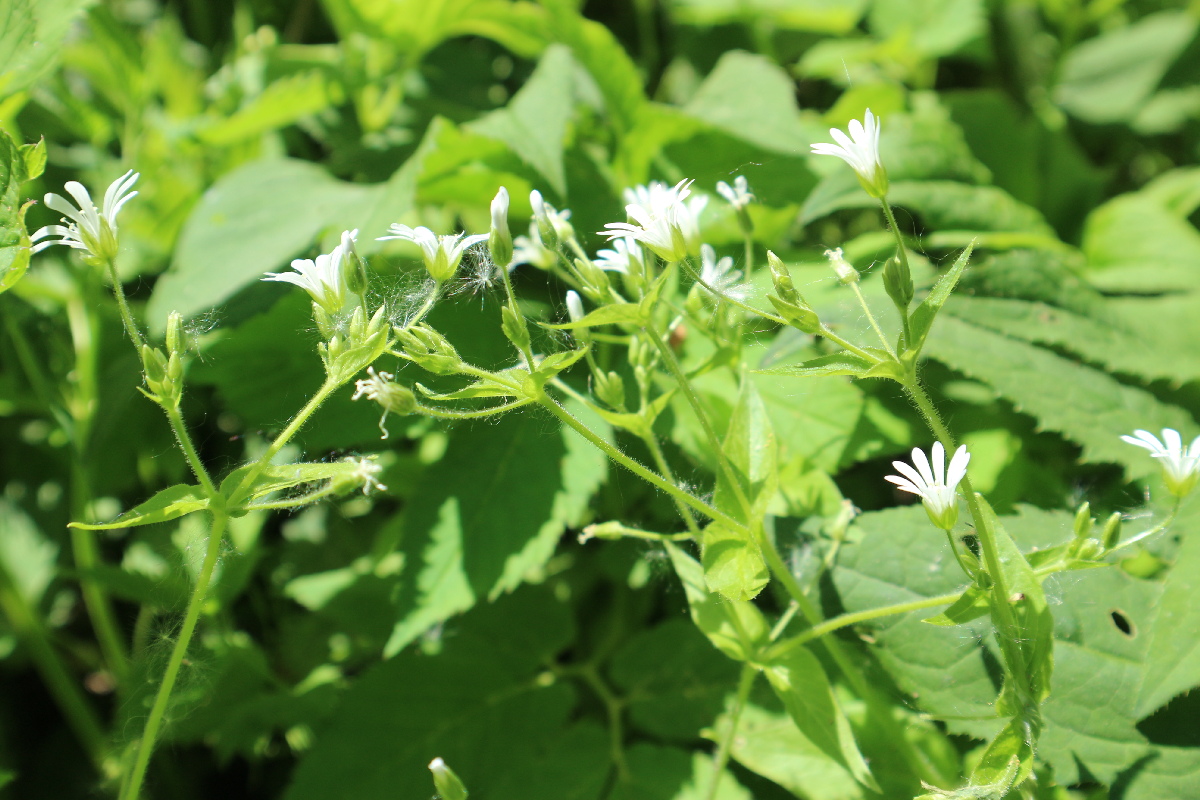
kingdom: Plantae
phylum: Tracheophyta
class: Magnoliopsida
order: Caryophyllales
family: Caryophyllaceae
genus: Stellaria
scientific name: Stellaria nemorum
